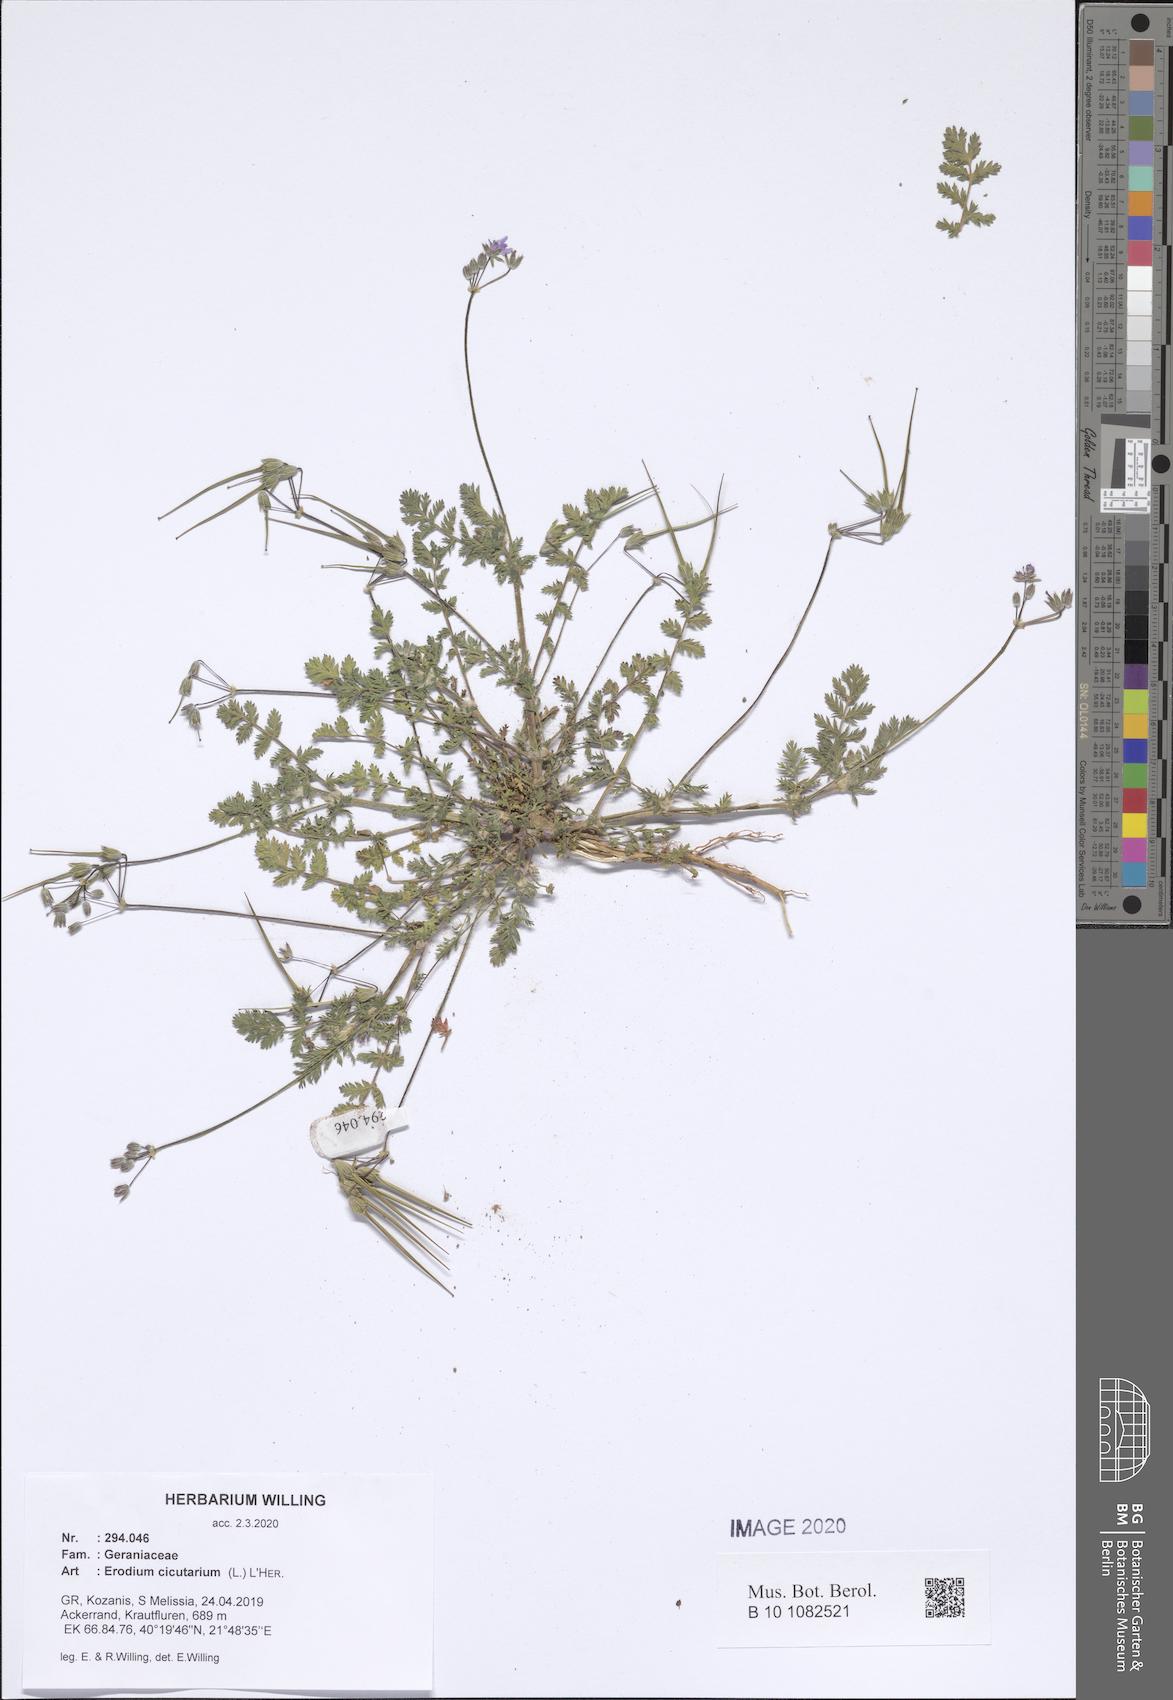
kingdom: Plantae
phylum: Tracheophyta
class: Magnoliopsida
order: Geraniales
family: Geraniaceae
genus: Erodium
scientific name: Erodium cicutarium
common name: Common stork's-bill
